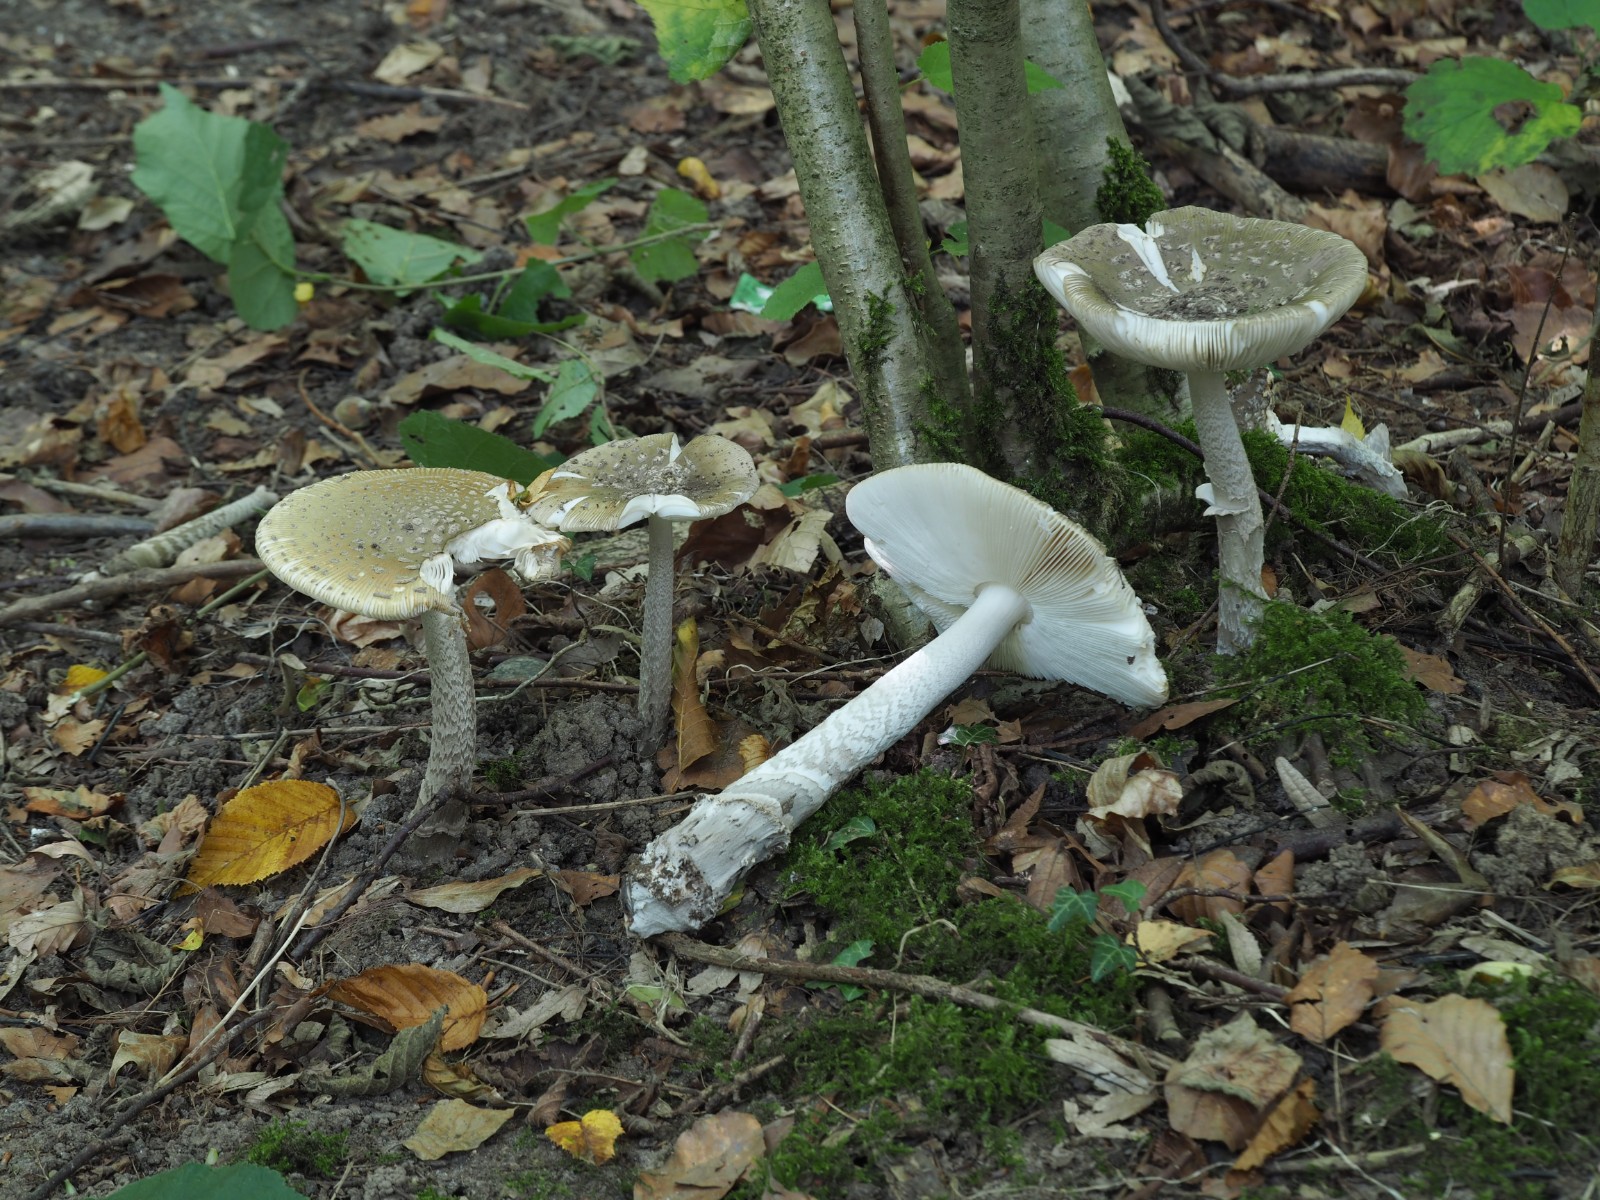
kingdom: Fungi
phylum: Basidiomycota
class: Agaricomycetes
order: Agaricales
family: Amanitaceae
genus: Amanita
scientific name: Amanita ceciliae
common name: stor kam-fluesvamp
